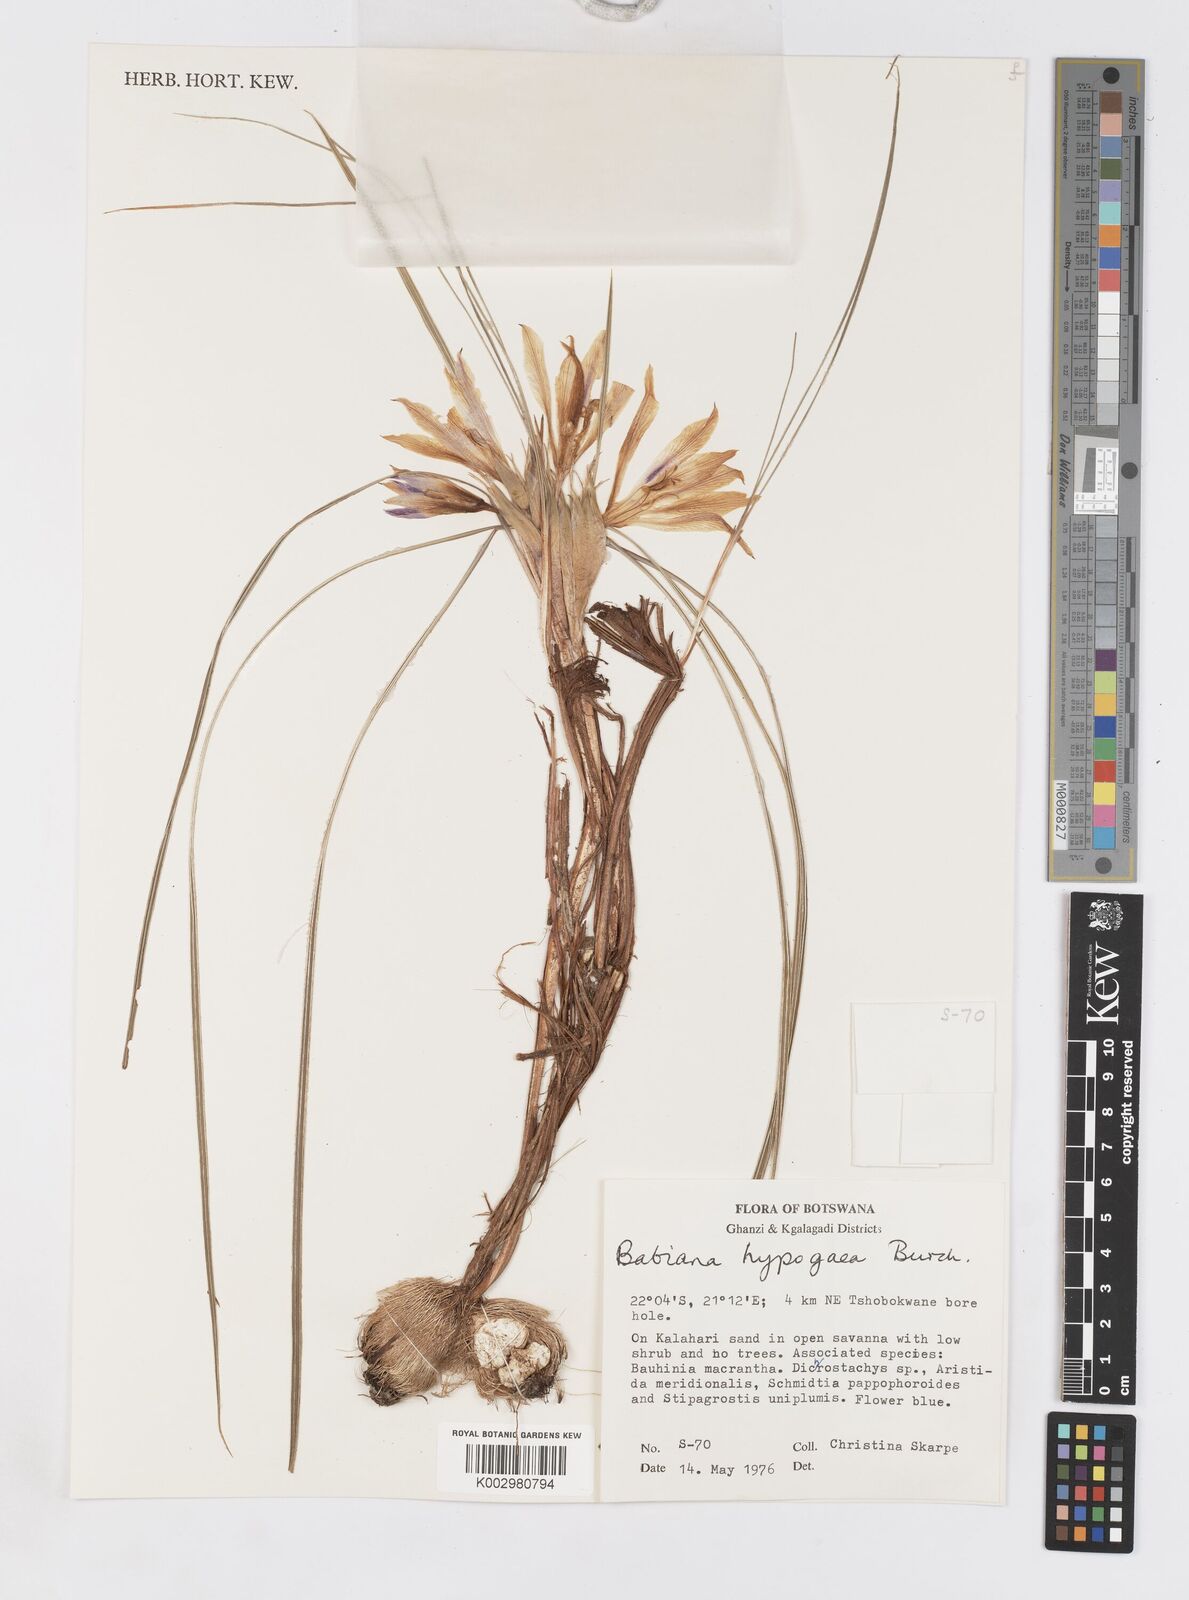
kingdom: Plantae
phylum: Tracheophyta
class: Liliopsida
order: Asparagales
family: Iridaceae
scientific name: Iridaceae
